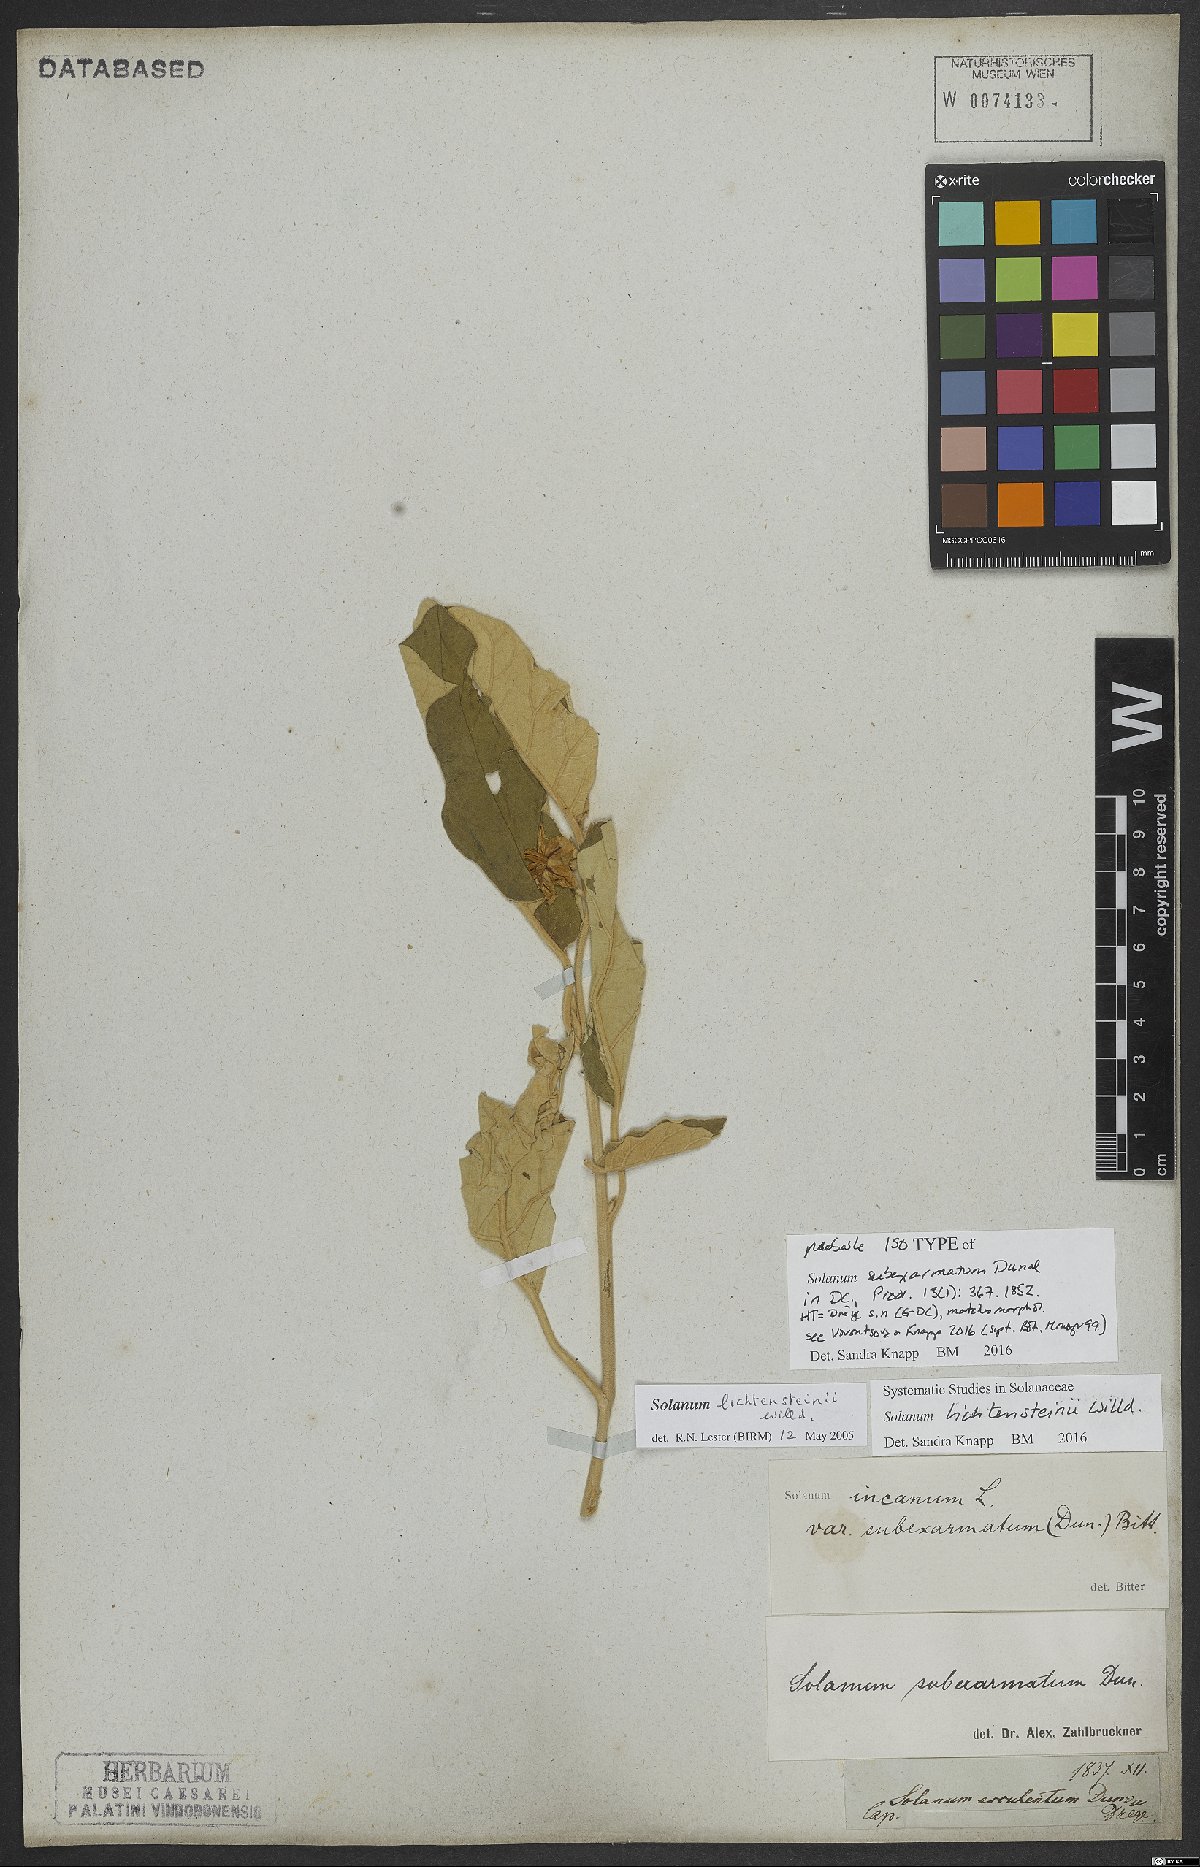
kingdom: Plantae
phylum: Tracheophyta
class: Magnoliopsida
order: Solanales
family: Solanaceae
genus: Solanum
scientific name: Solanum lichtensteinii
